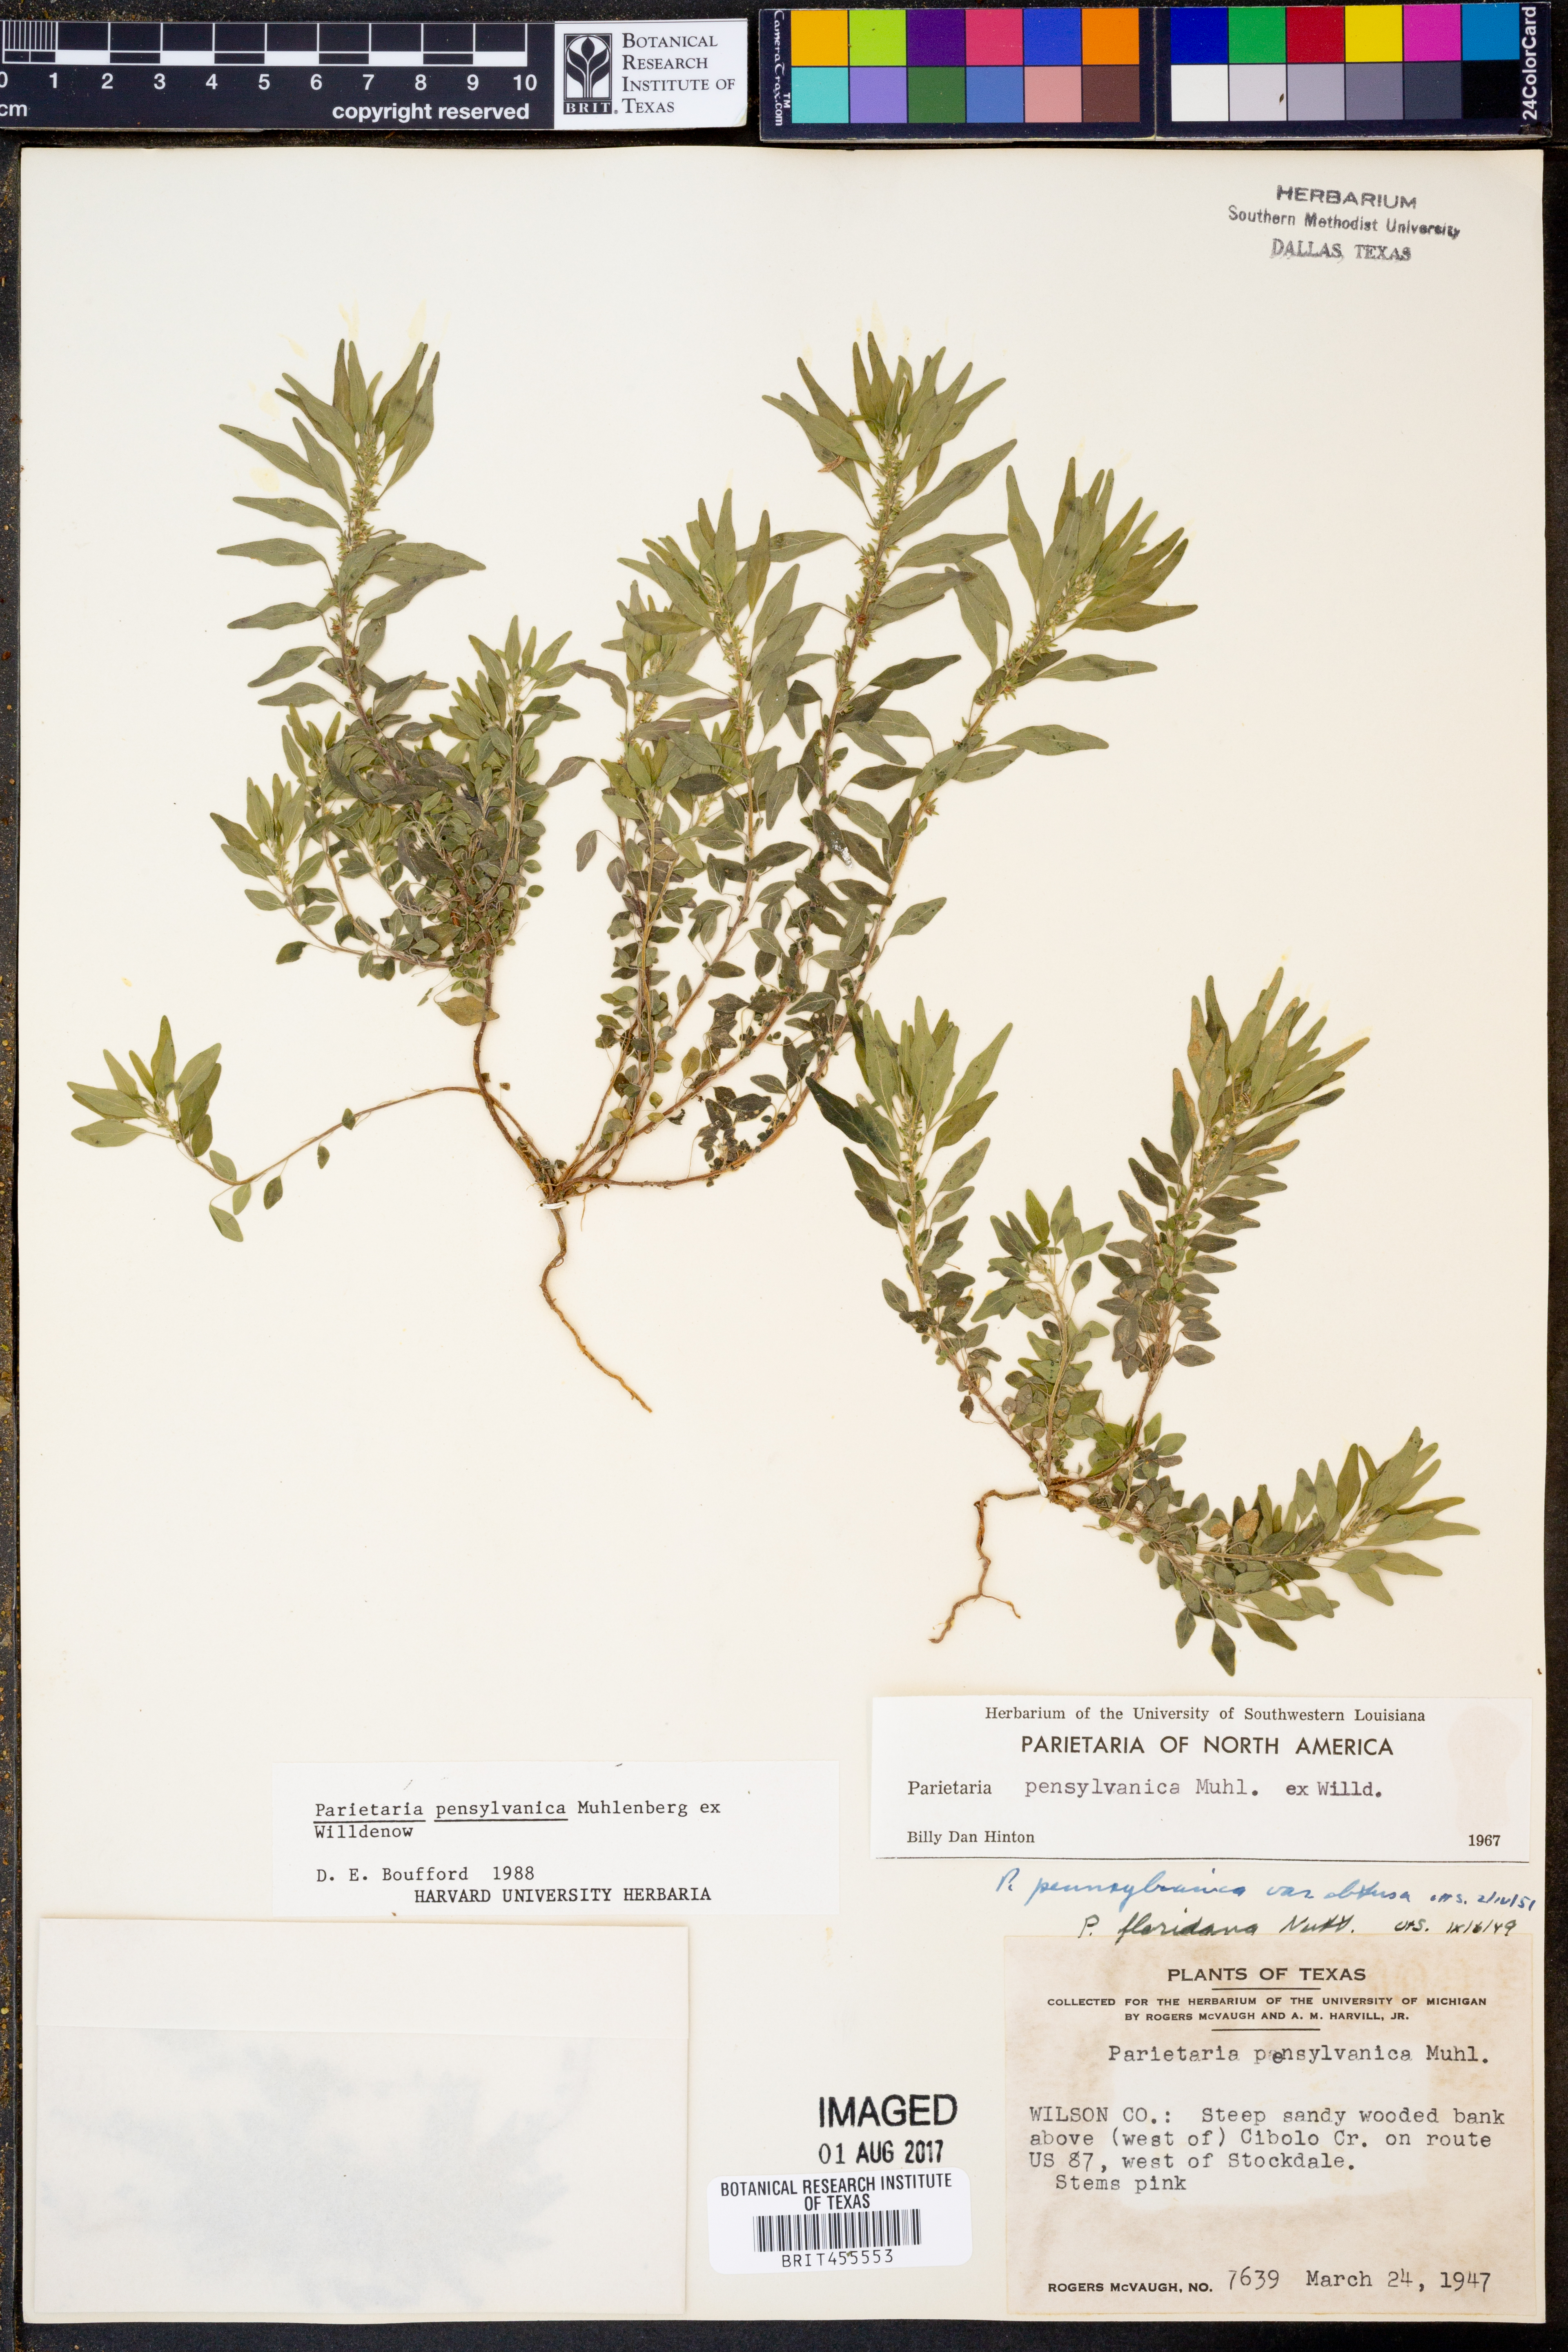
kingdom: Plantae
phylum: Tracheophyta
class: Magnoliopsida
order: Rosales
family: Urticaceae
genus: Parietaria
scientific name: Parietaria pensylvanica
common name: Pennsylvania pellitory
